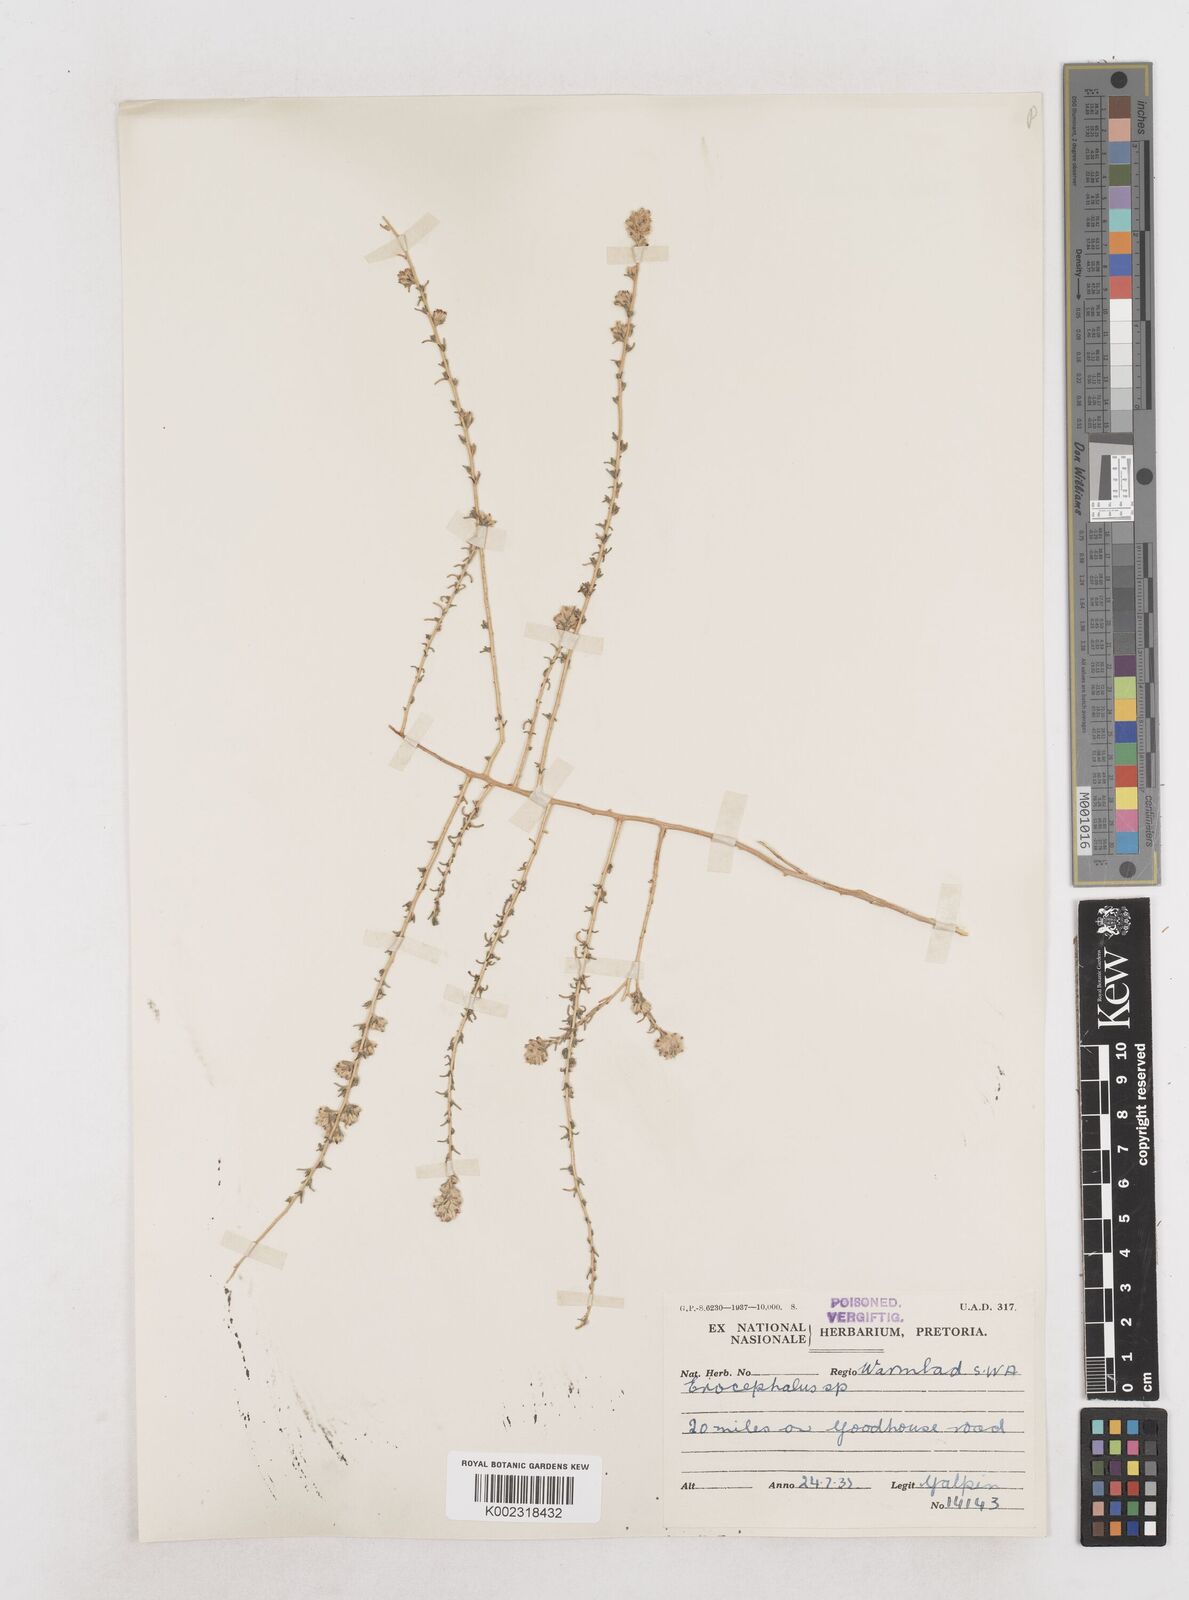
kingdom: Plantae
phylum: Tracheophyta
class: Magnoliopsida
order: Asterales
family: Asteraceae
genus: Eriocephalus
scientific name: Eriocephalus
